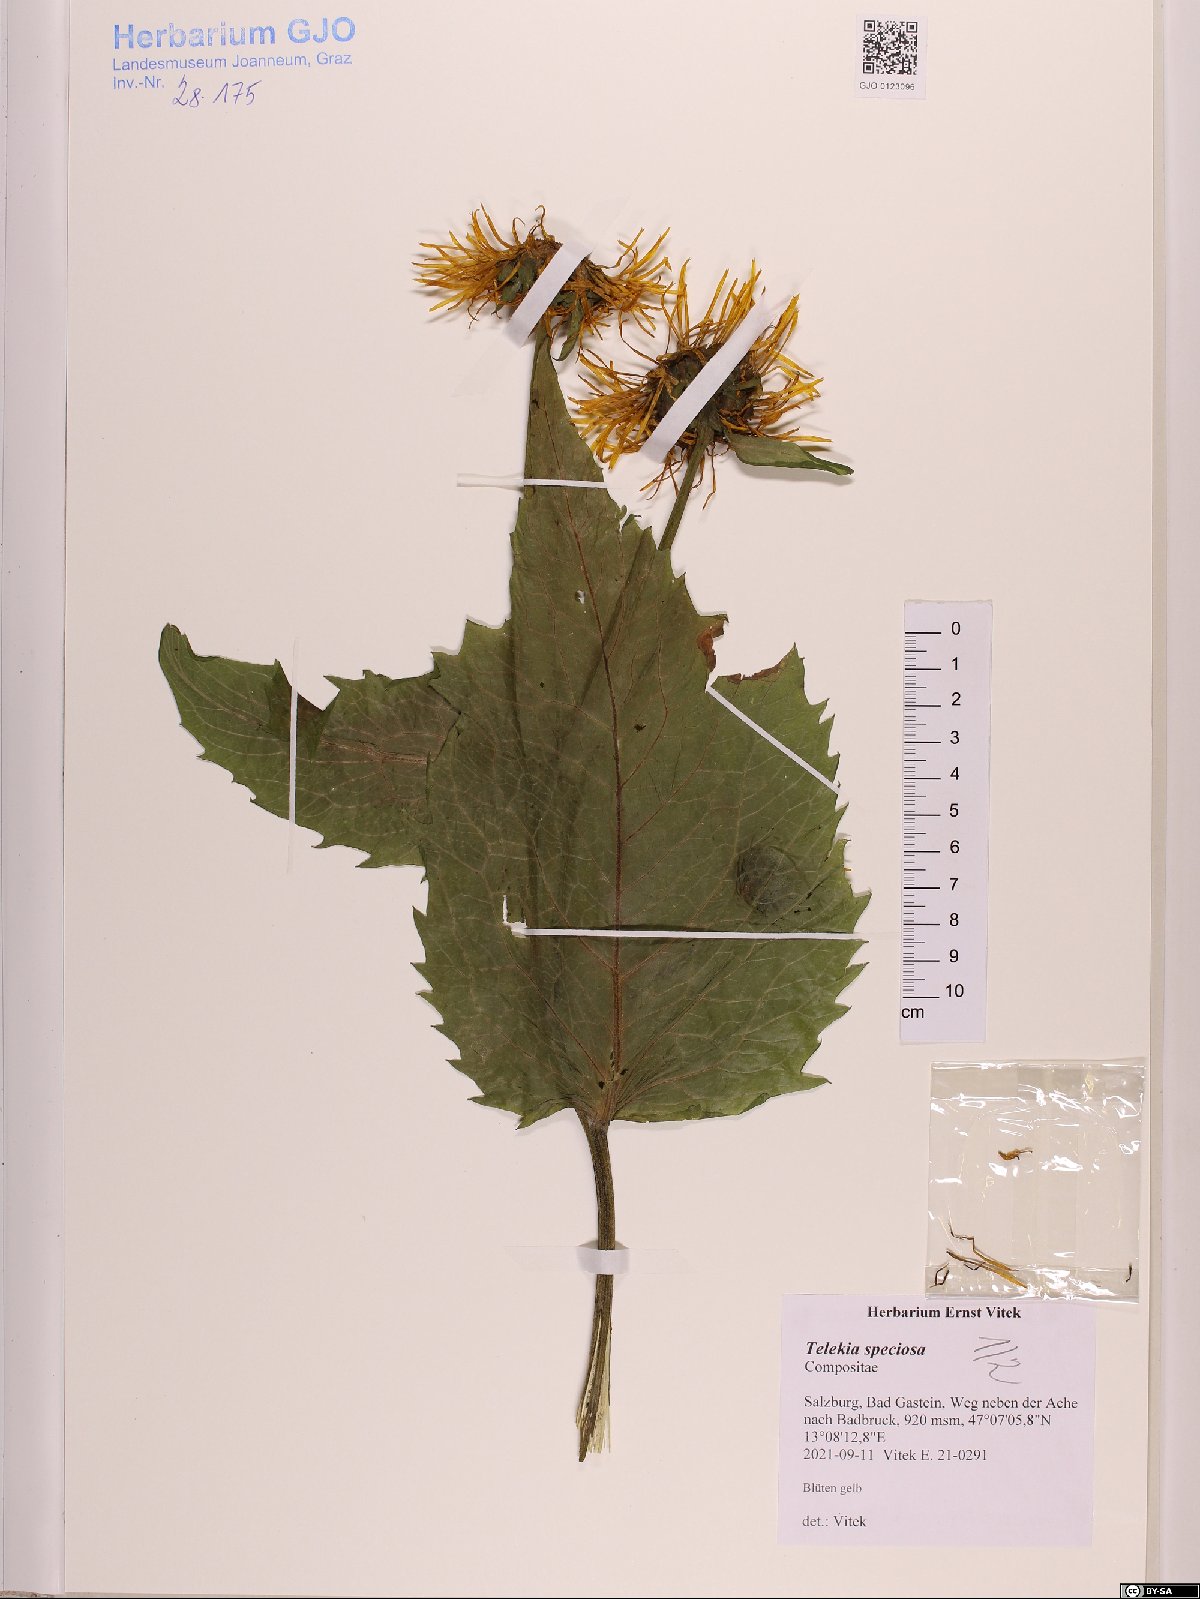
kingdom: Plantae
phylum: Tracheophyta
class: Magnoliopsida
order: Asterales
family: Asteraceae
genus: Telekia
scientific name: Telekia speciosa
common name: Yellow oxeye
